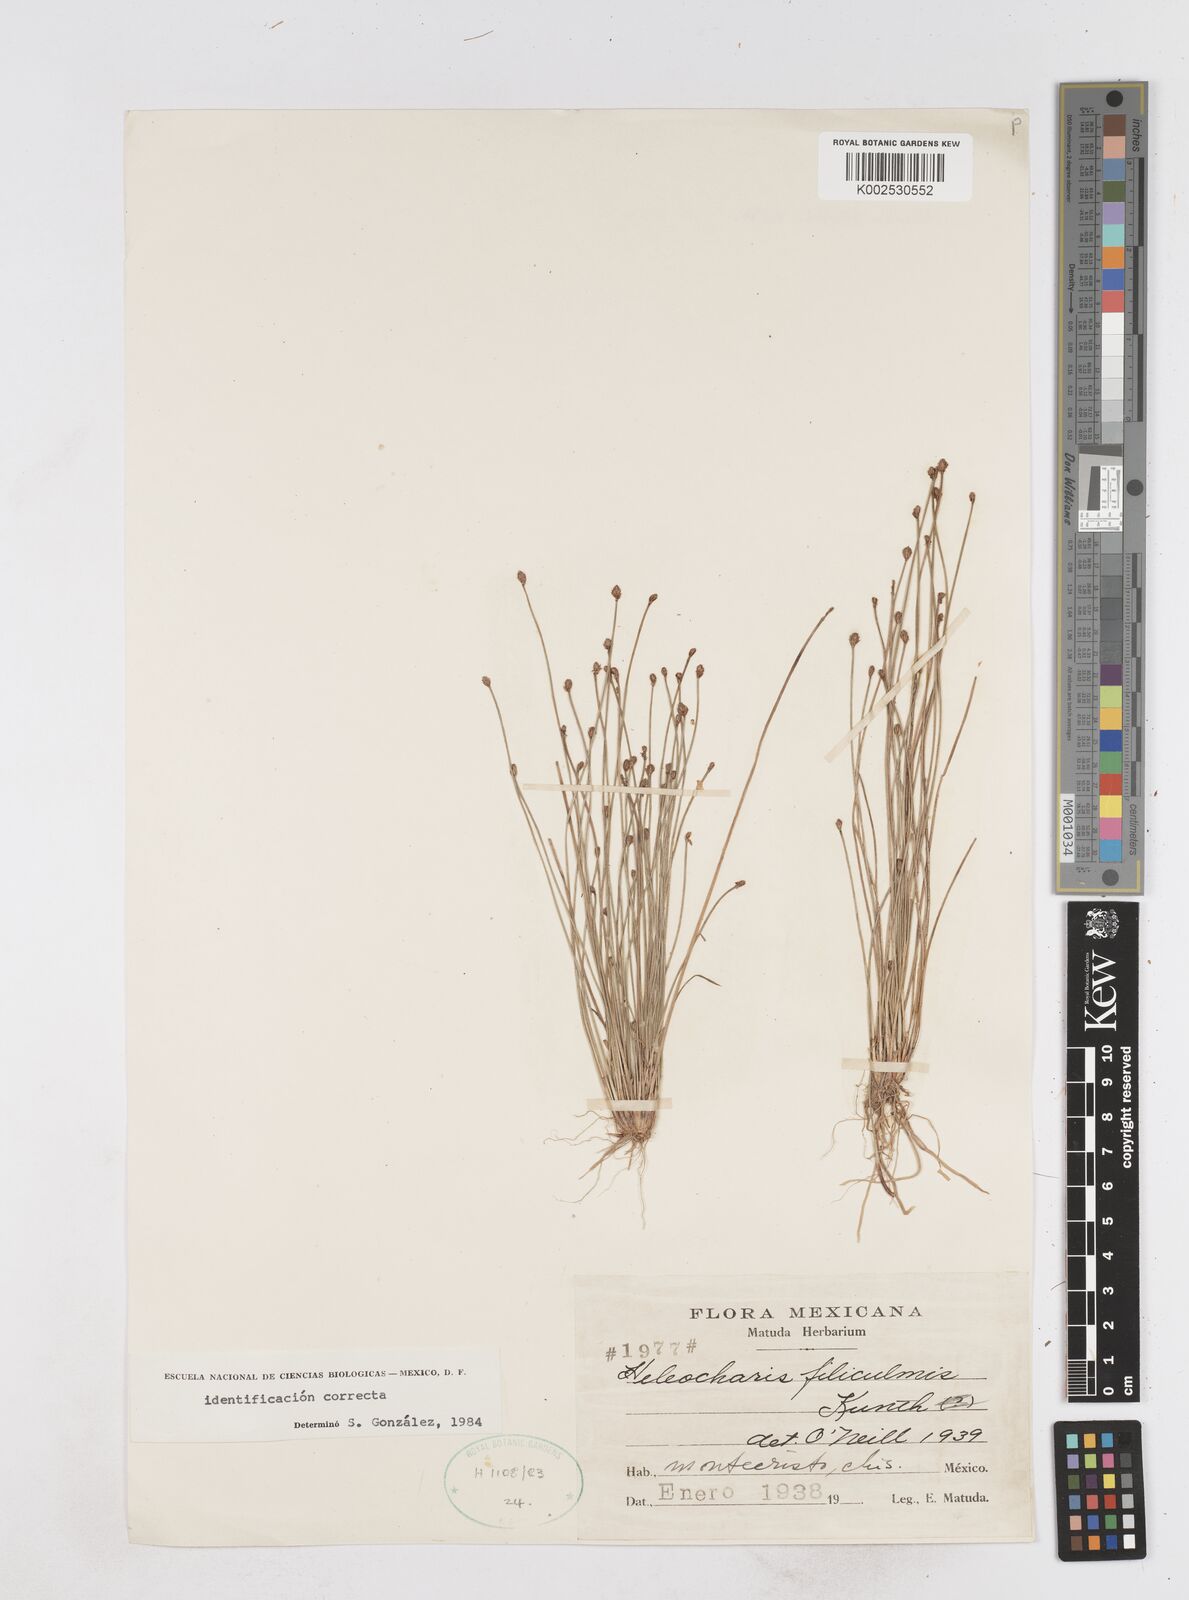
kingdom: Plantae
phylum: Tracheophyta
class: Liliopsida
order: Poales
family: Cyperaceae
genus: Eleocharis
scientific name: Eleocharis filiculmis
